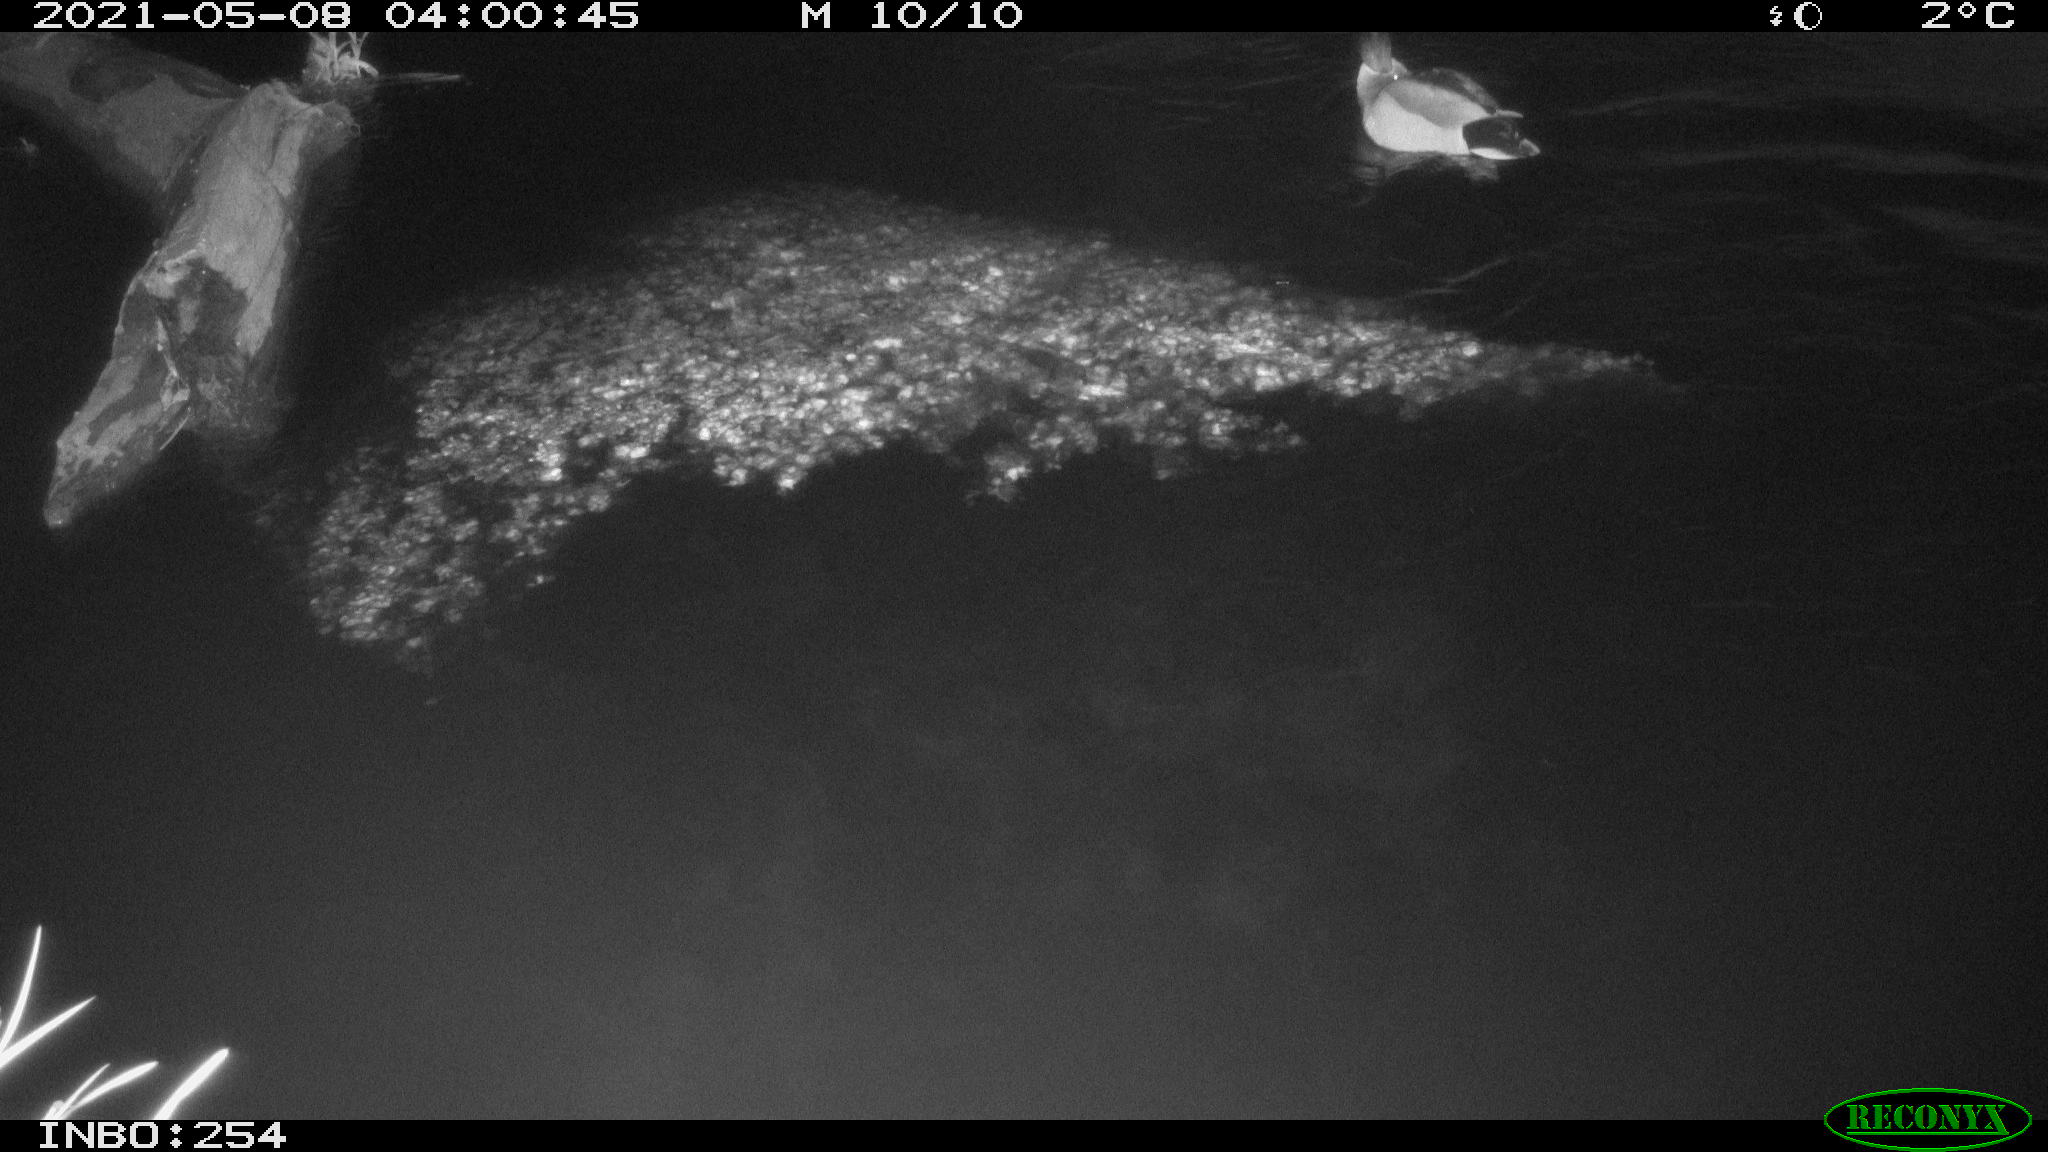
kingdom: Animalia
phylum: Chordata
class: Aves
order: Anseriformes
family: Anatidae
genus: Anas
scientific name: Anas
